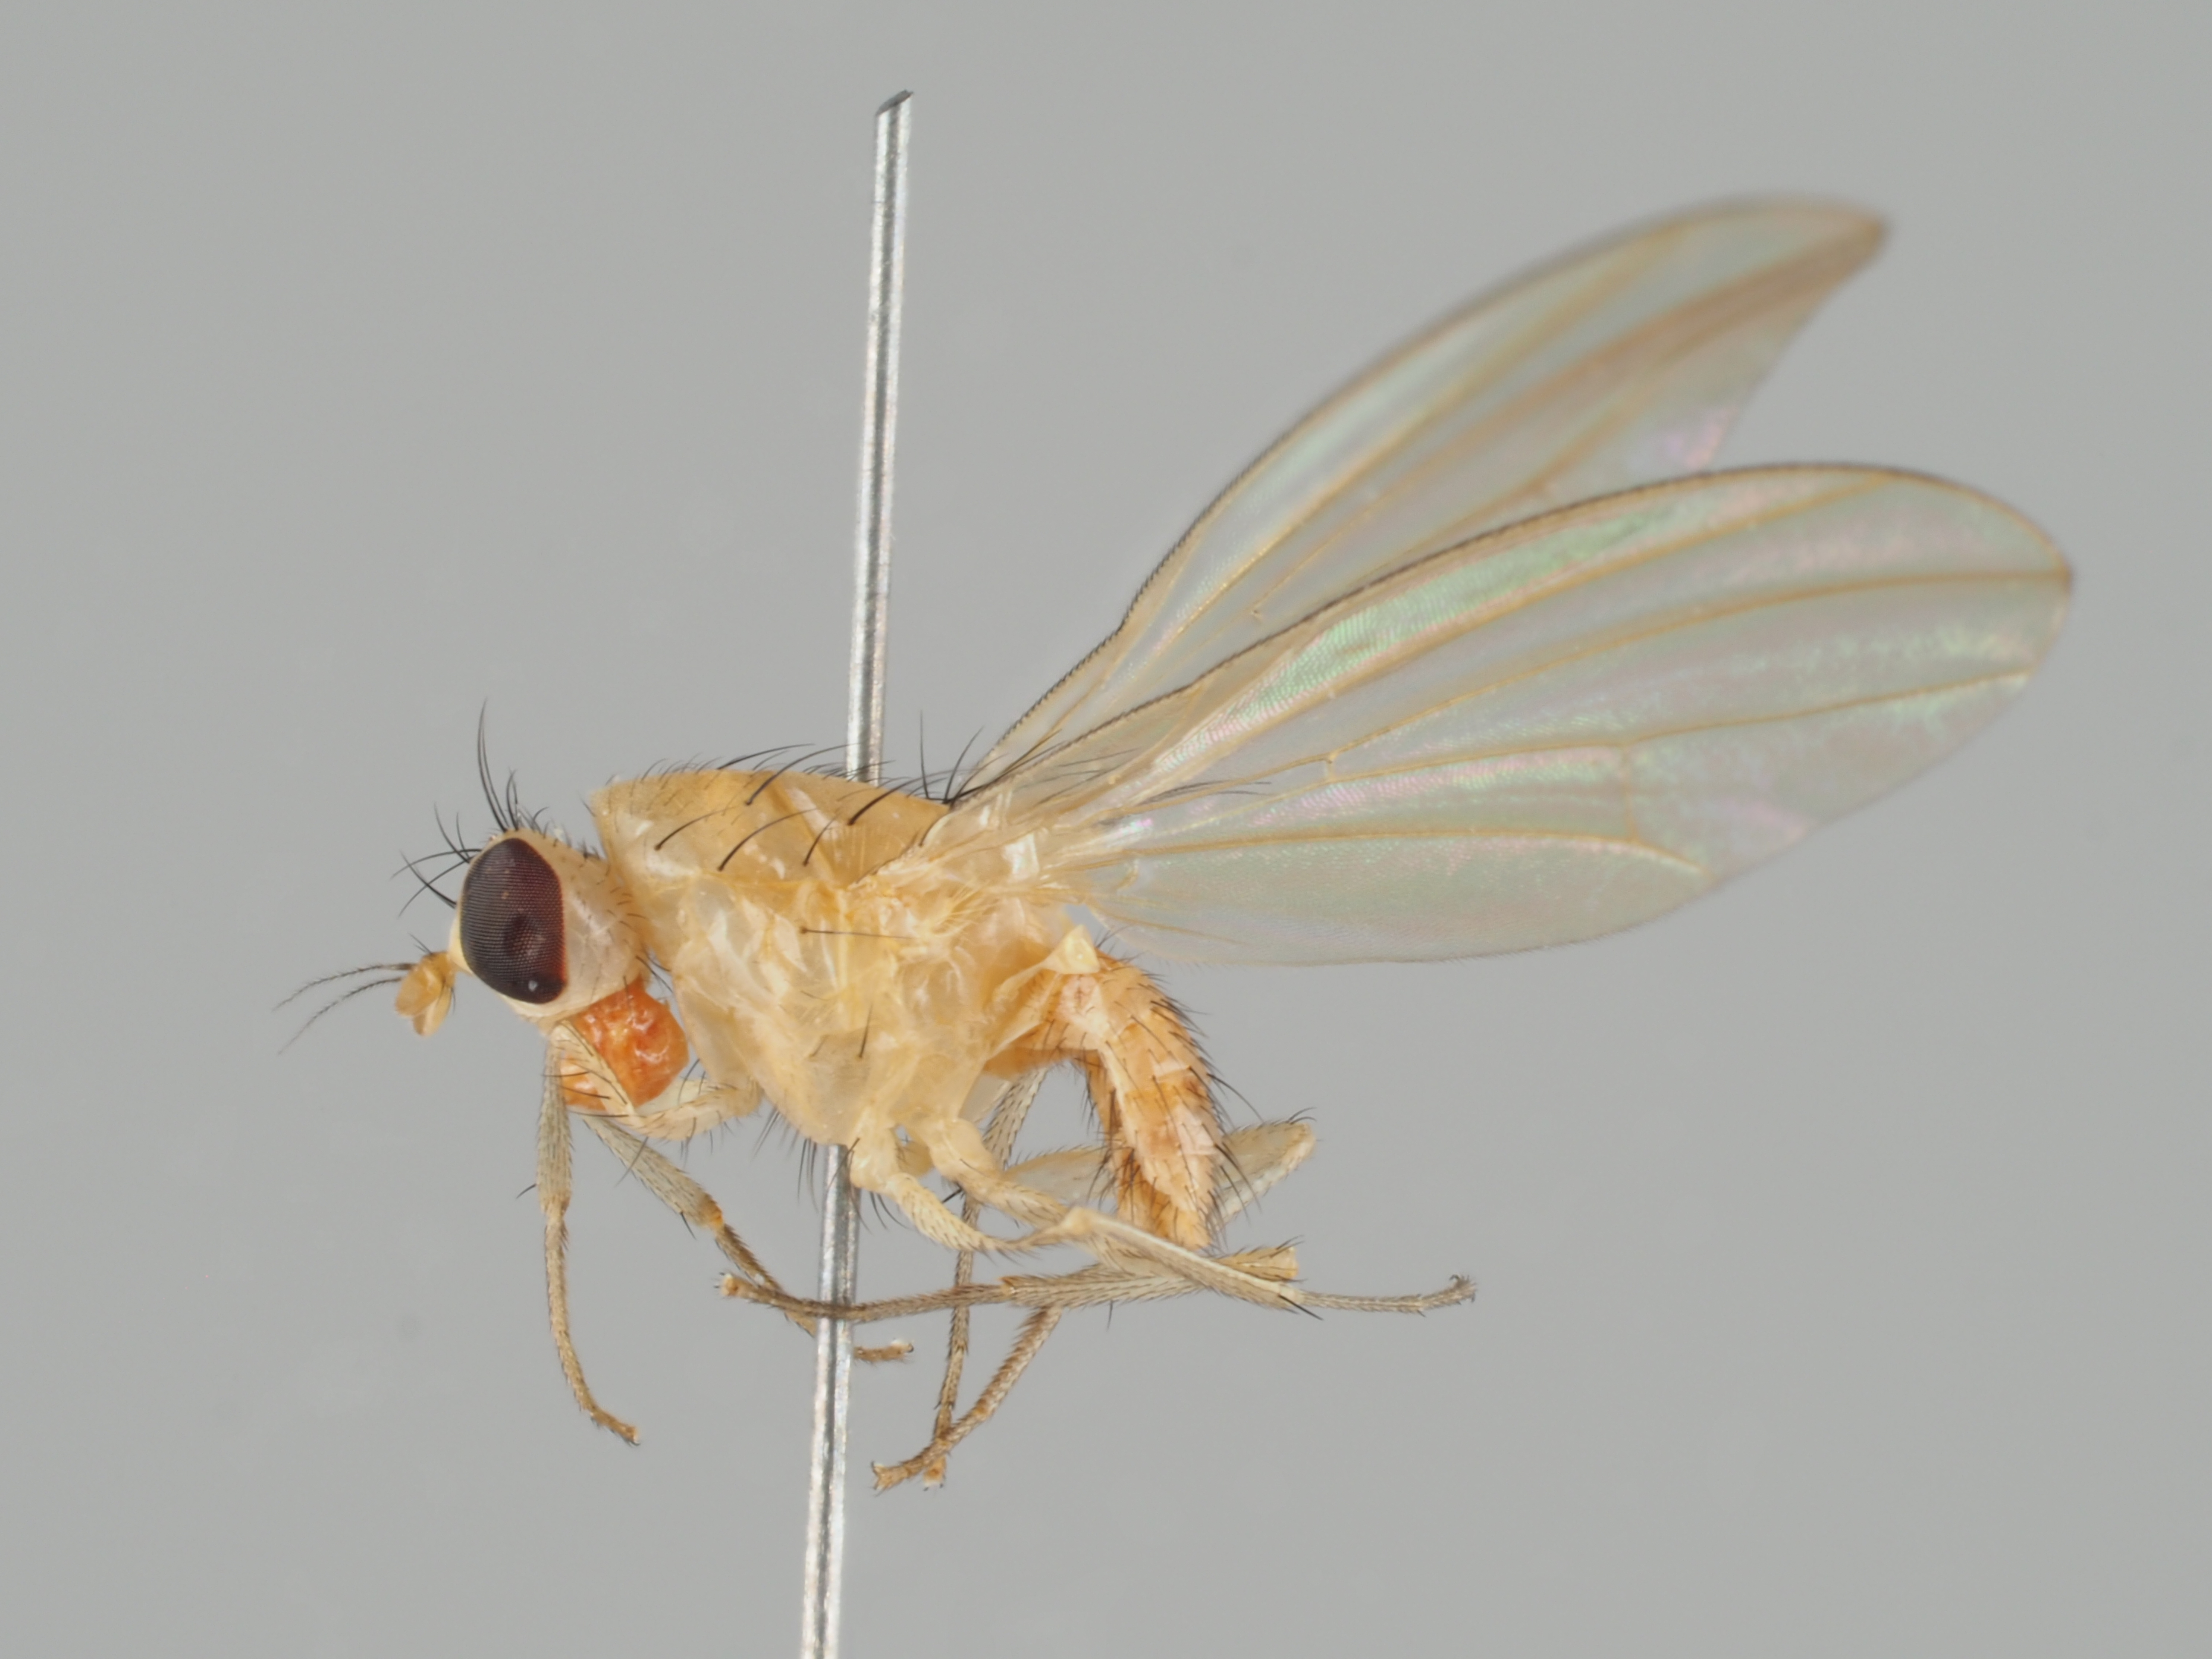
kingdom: Animalia
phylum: Arthropoda
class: Insecta
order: Diptera
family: Lauxaniidae
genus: Meiosimyza
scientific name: Meiosimyza rorida
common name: Fly
